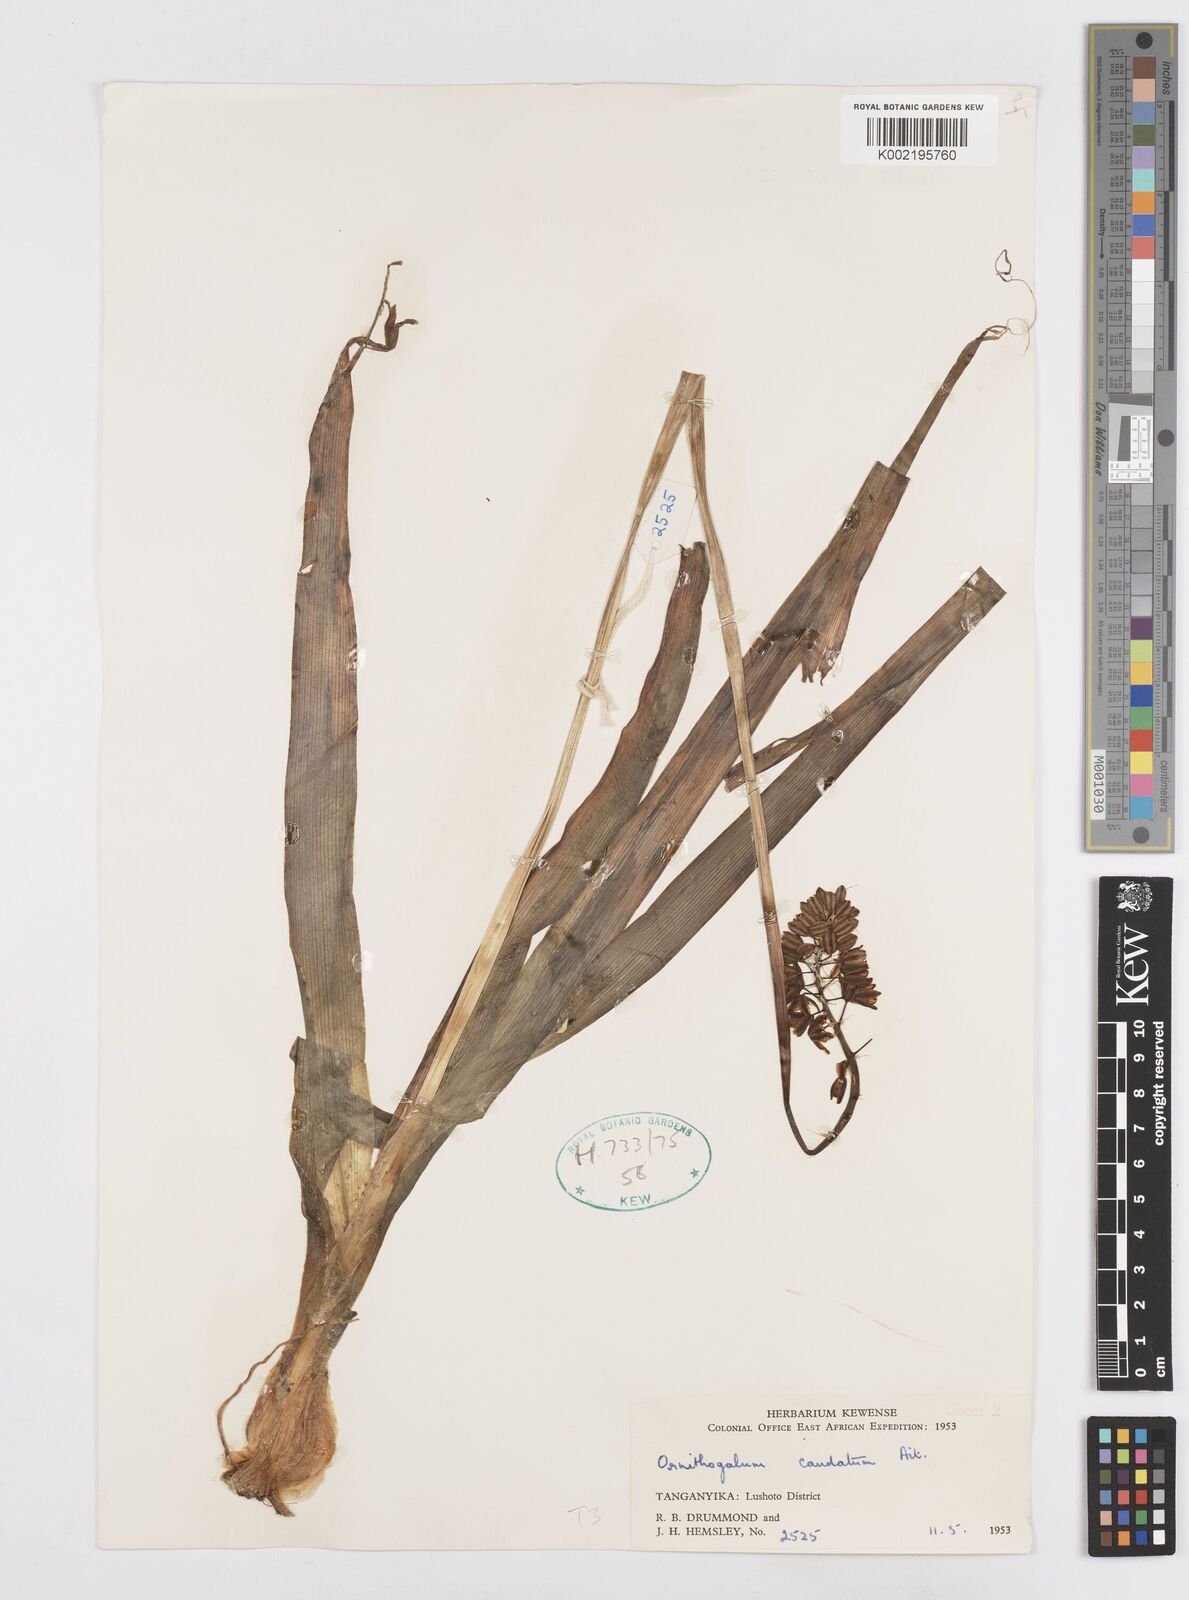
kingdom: Plantae
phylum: Tracheophyta
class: Liliopsida
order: Asparagales
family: Asparagaceae
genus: Albuca
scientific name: Albuca virens
